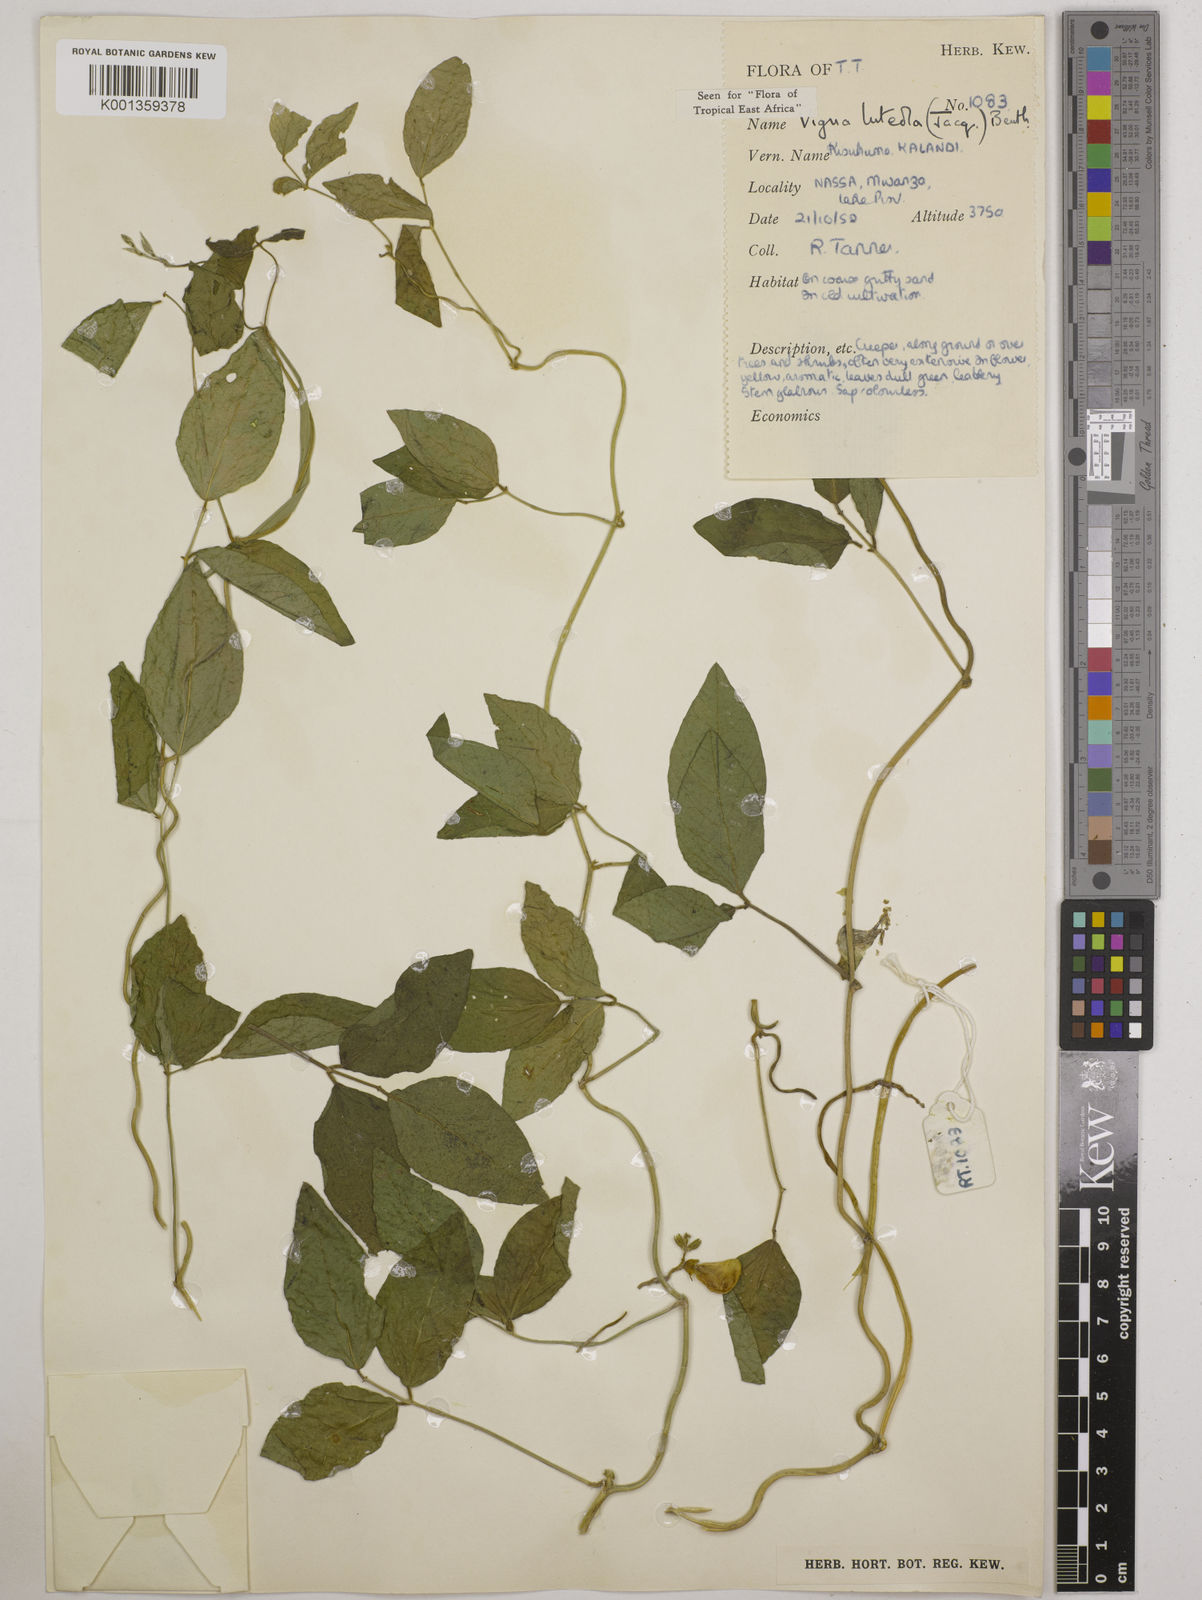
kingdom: Plantae
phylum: Tracheophyta
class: Magnoliopsida
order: Fabales
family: Fabaceae
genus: Vigna
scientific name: Vigna luteola
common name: Hairypod cowpea
